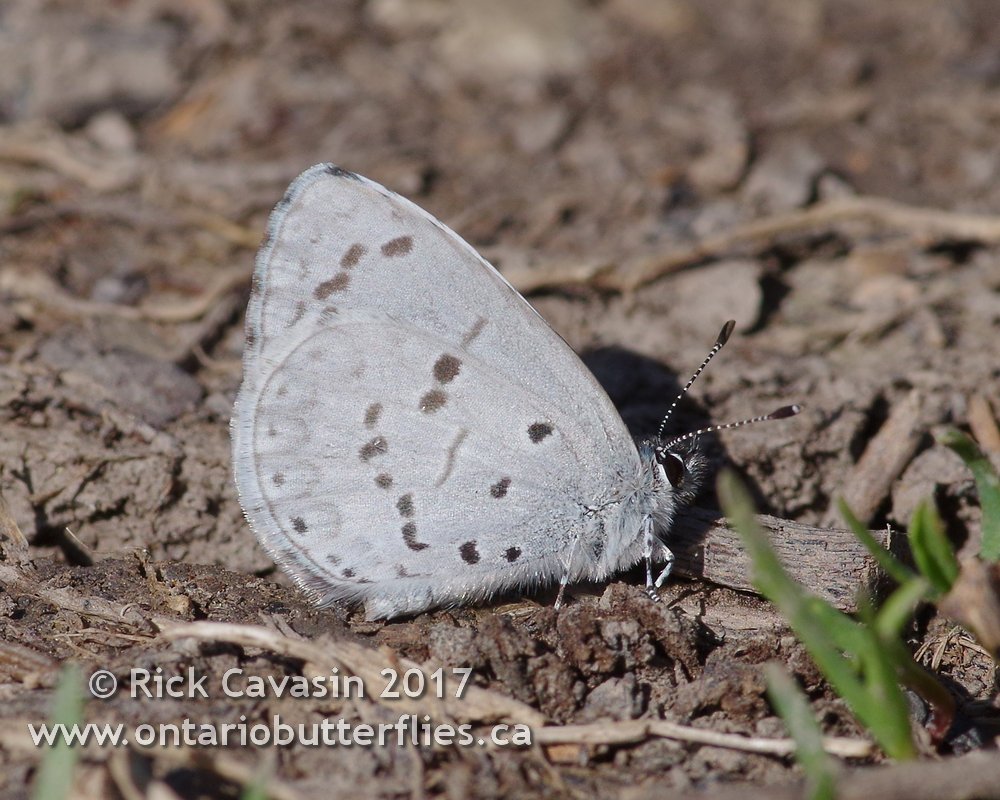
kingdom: Animalia
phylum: Arthropoda
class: Insecta
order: Lepidoptera
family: Lycaenidae
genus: Celastrina
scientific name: Celastrina
